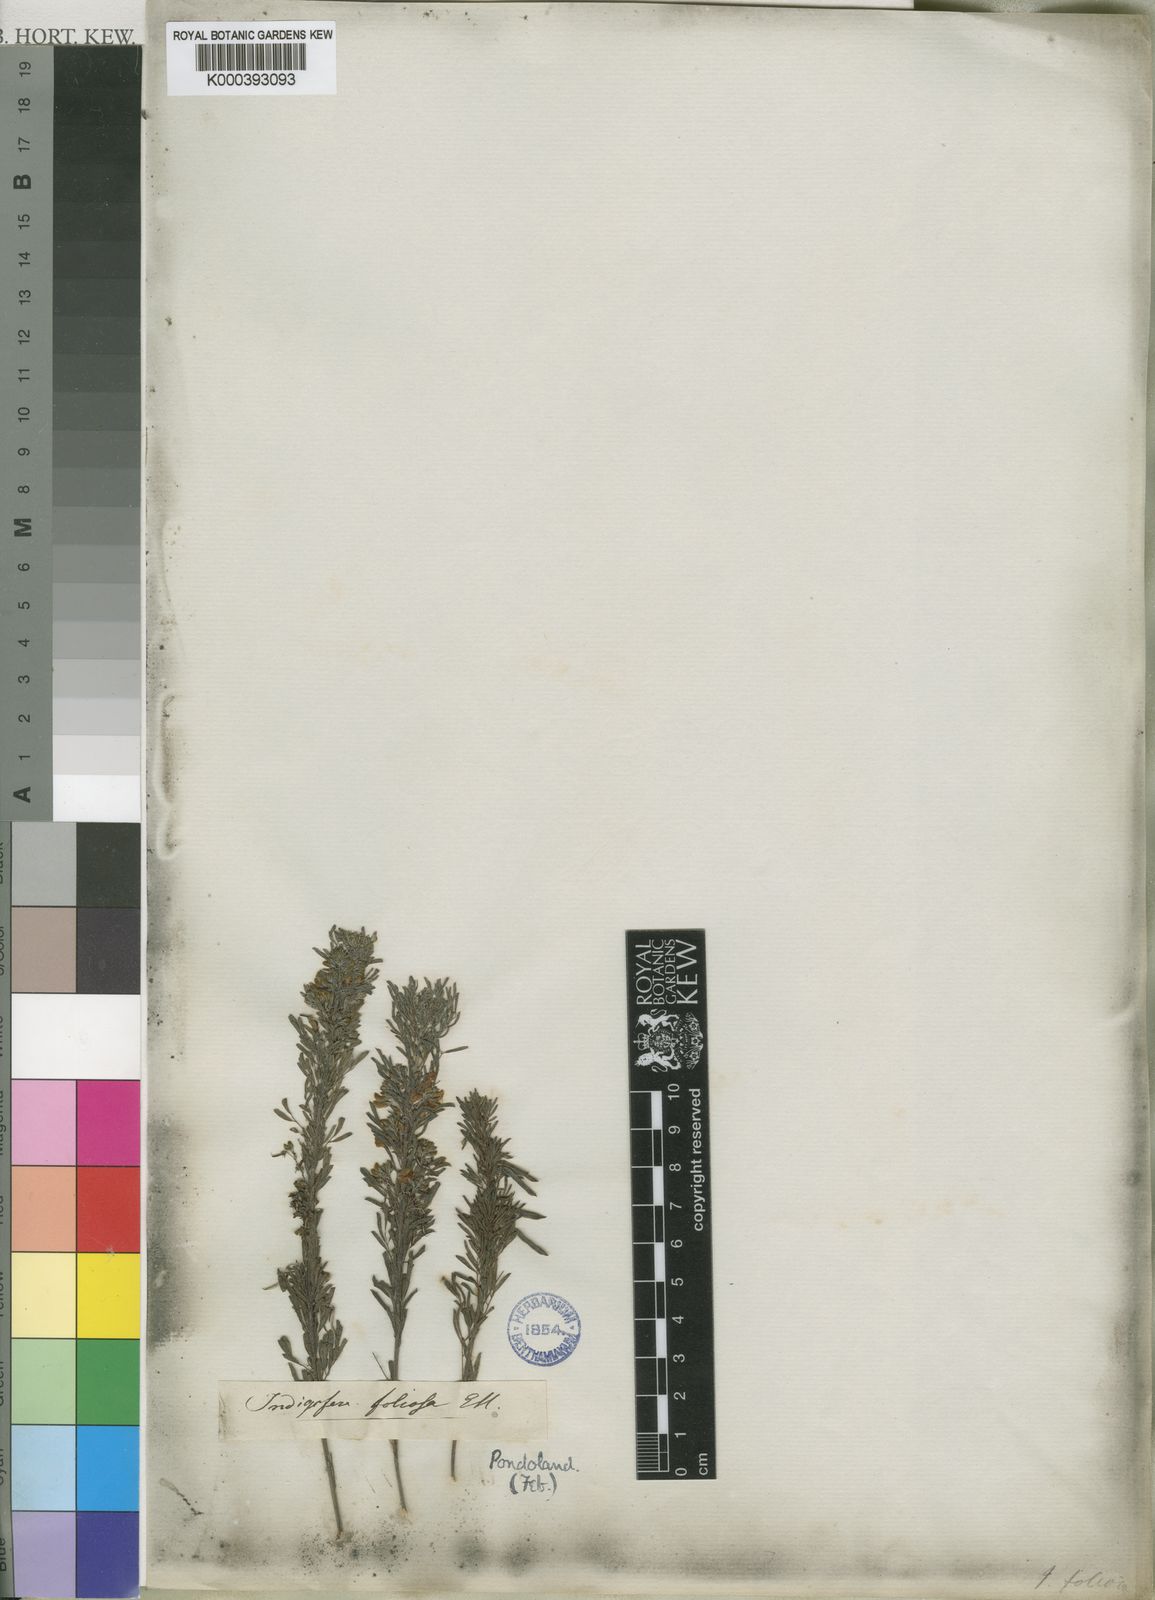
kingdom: Plantae
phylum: Tracheophyta
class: Magnoliopsida
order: Fabales
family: Fabaceae
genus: Indigofera
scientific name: Indigofera vestita
